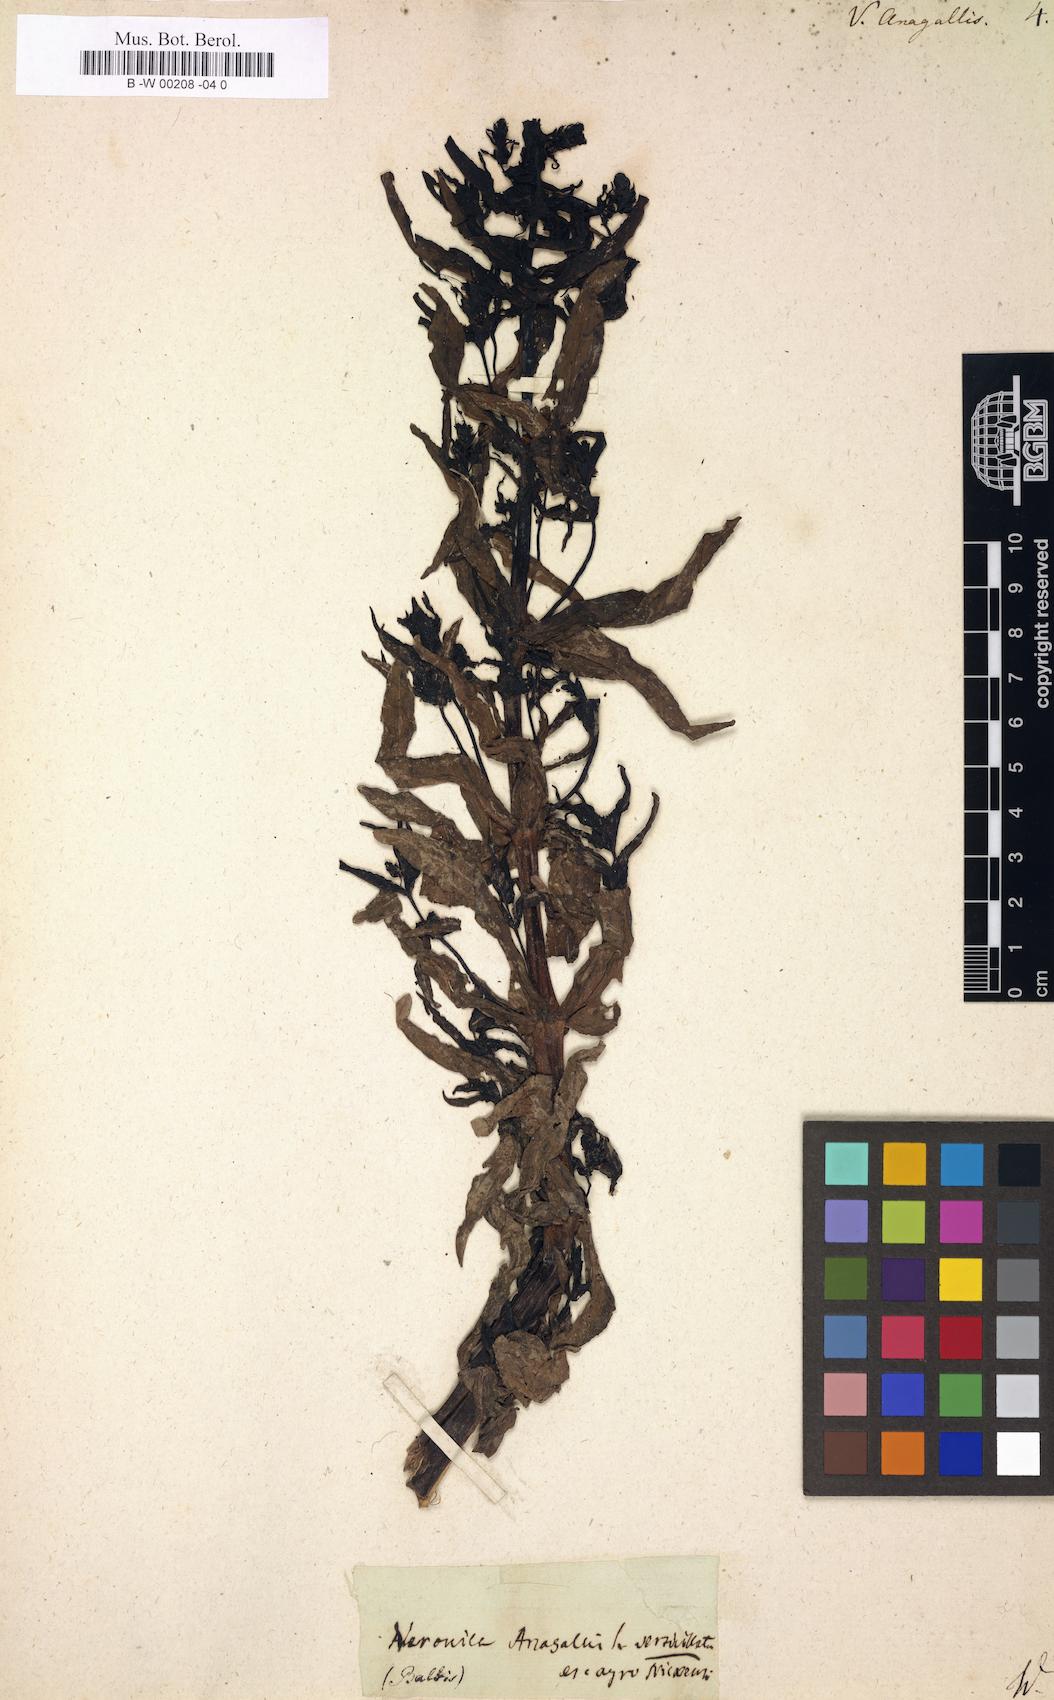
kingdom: Plantae
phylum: Tracheophyta
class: Magnoliopsida
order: Lamiales
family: Plantaginaceae
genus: Veronica
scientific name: Veronica anagallis
